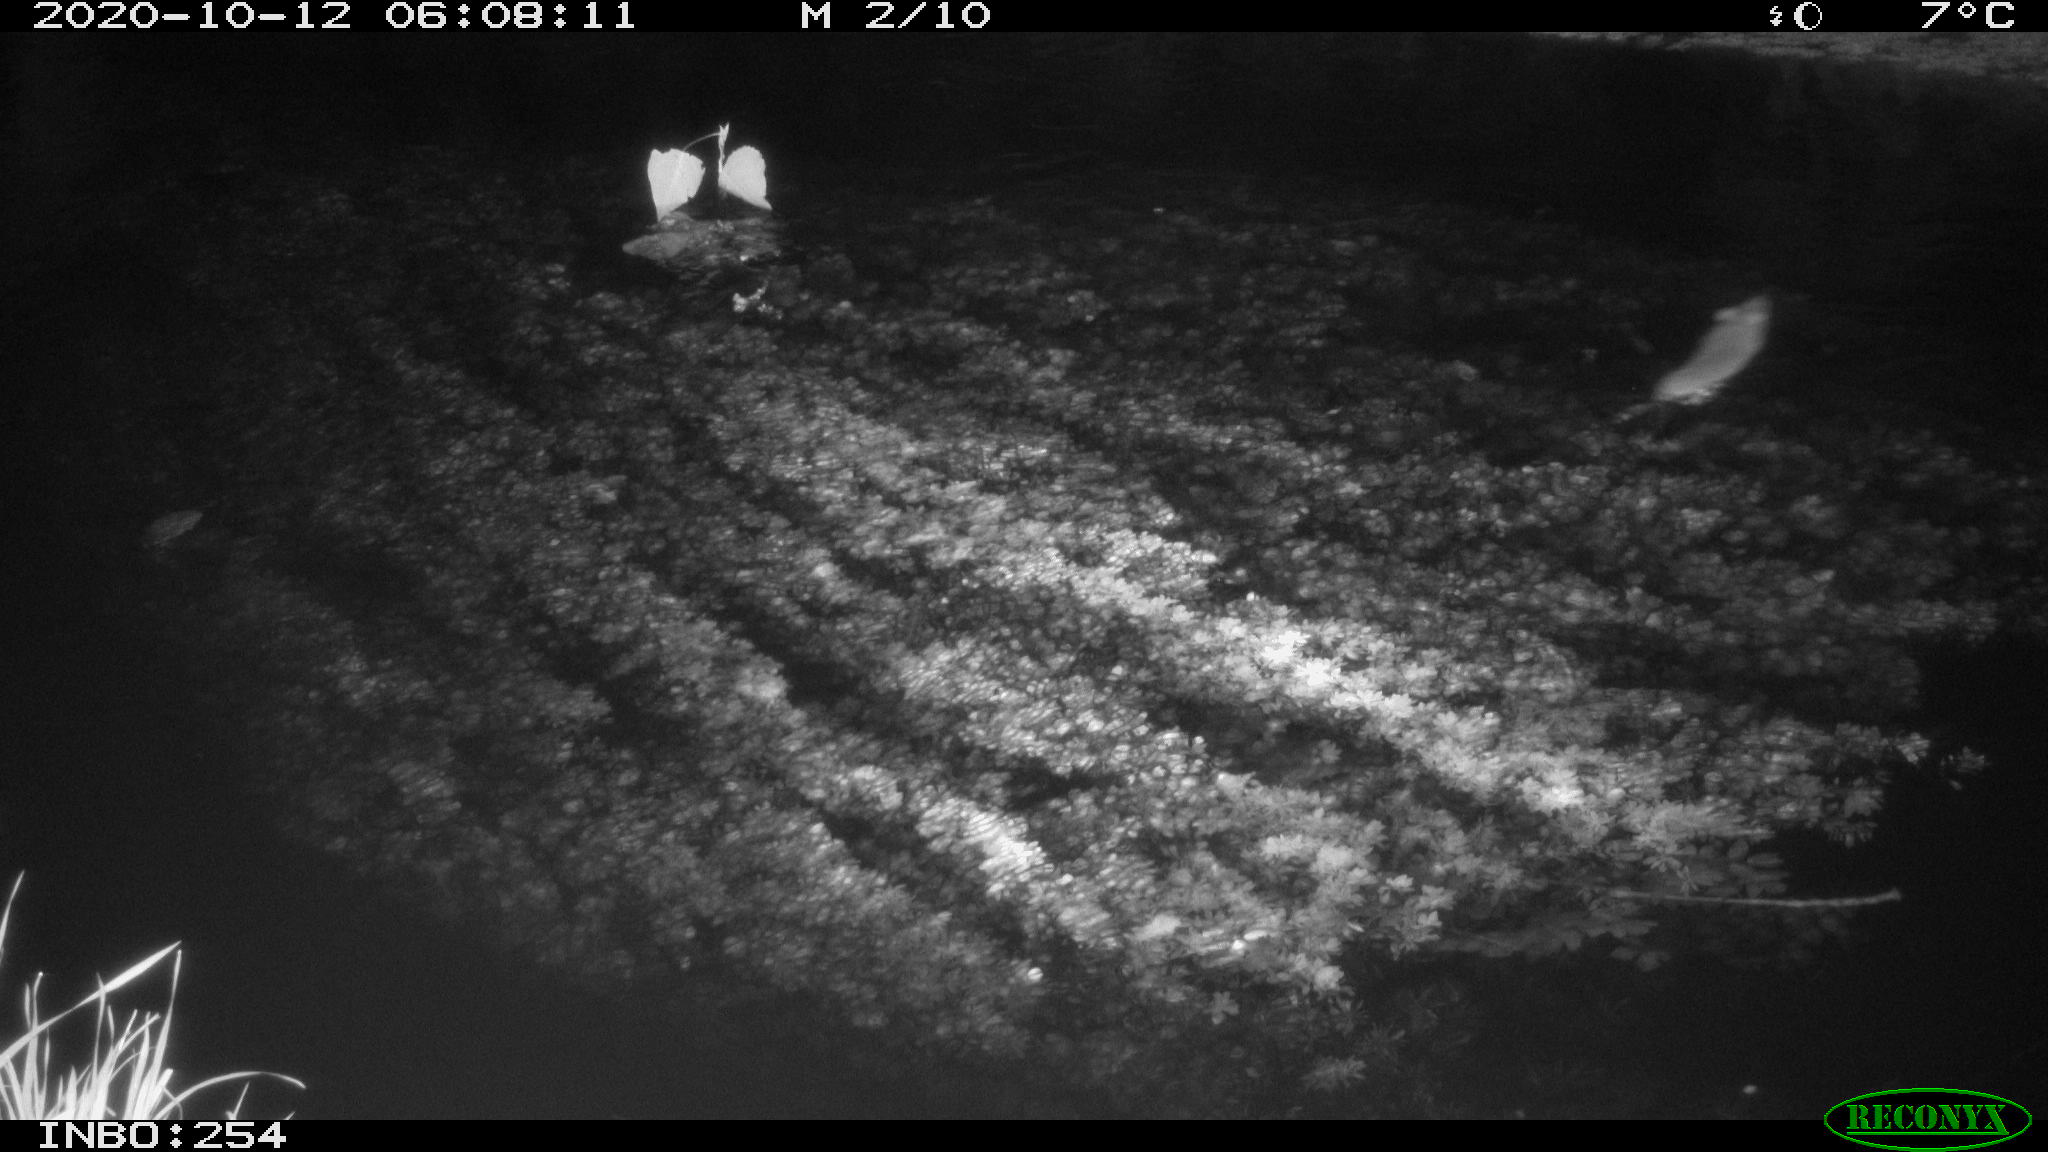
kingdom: Animalia
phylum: Chordata
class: Mammalia
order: Rodentia
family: Muridae
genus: Rattus
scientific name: Rattus norvegicus
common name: Brown rat
